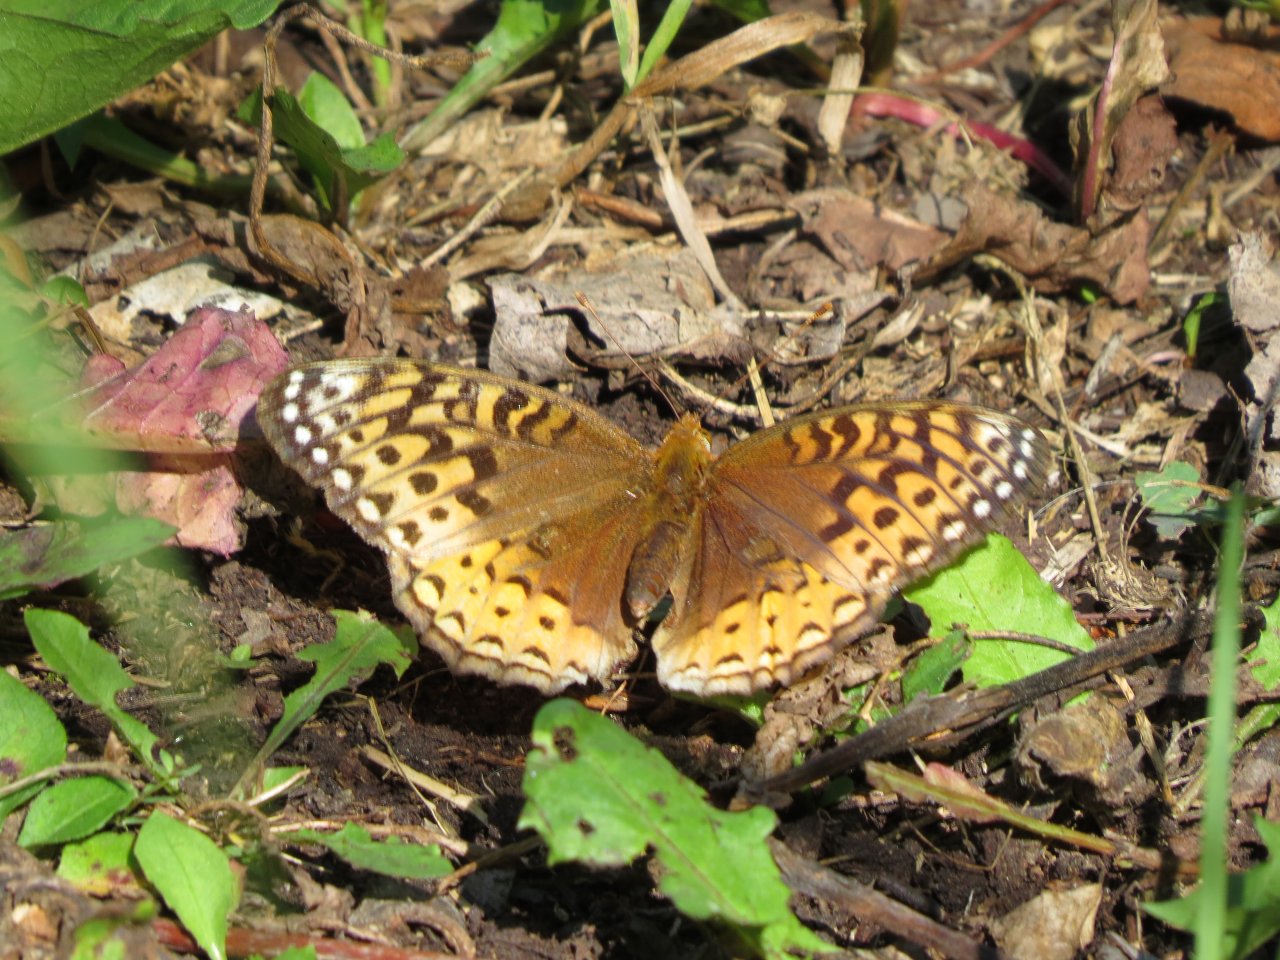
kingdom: Animalia
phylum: Arthropoda
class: Insecta
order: Lepidoptera
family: Nymphalidae
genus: Speyeria
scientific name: Speyeria cybele
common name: Great Spangled Fritillary
